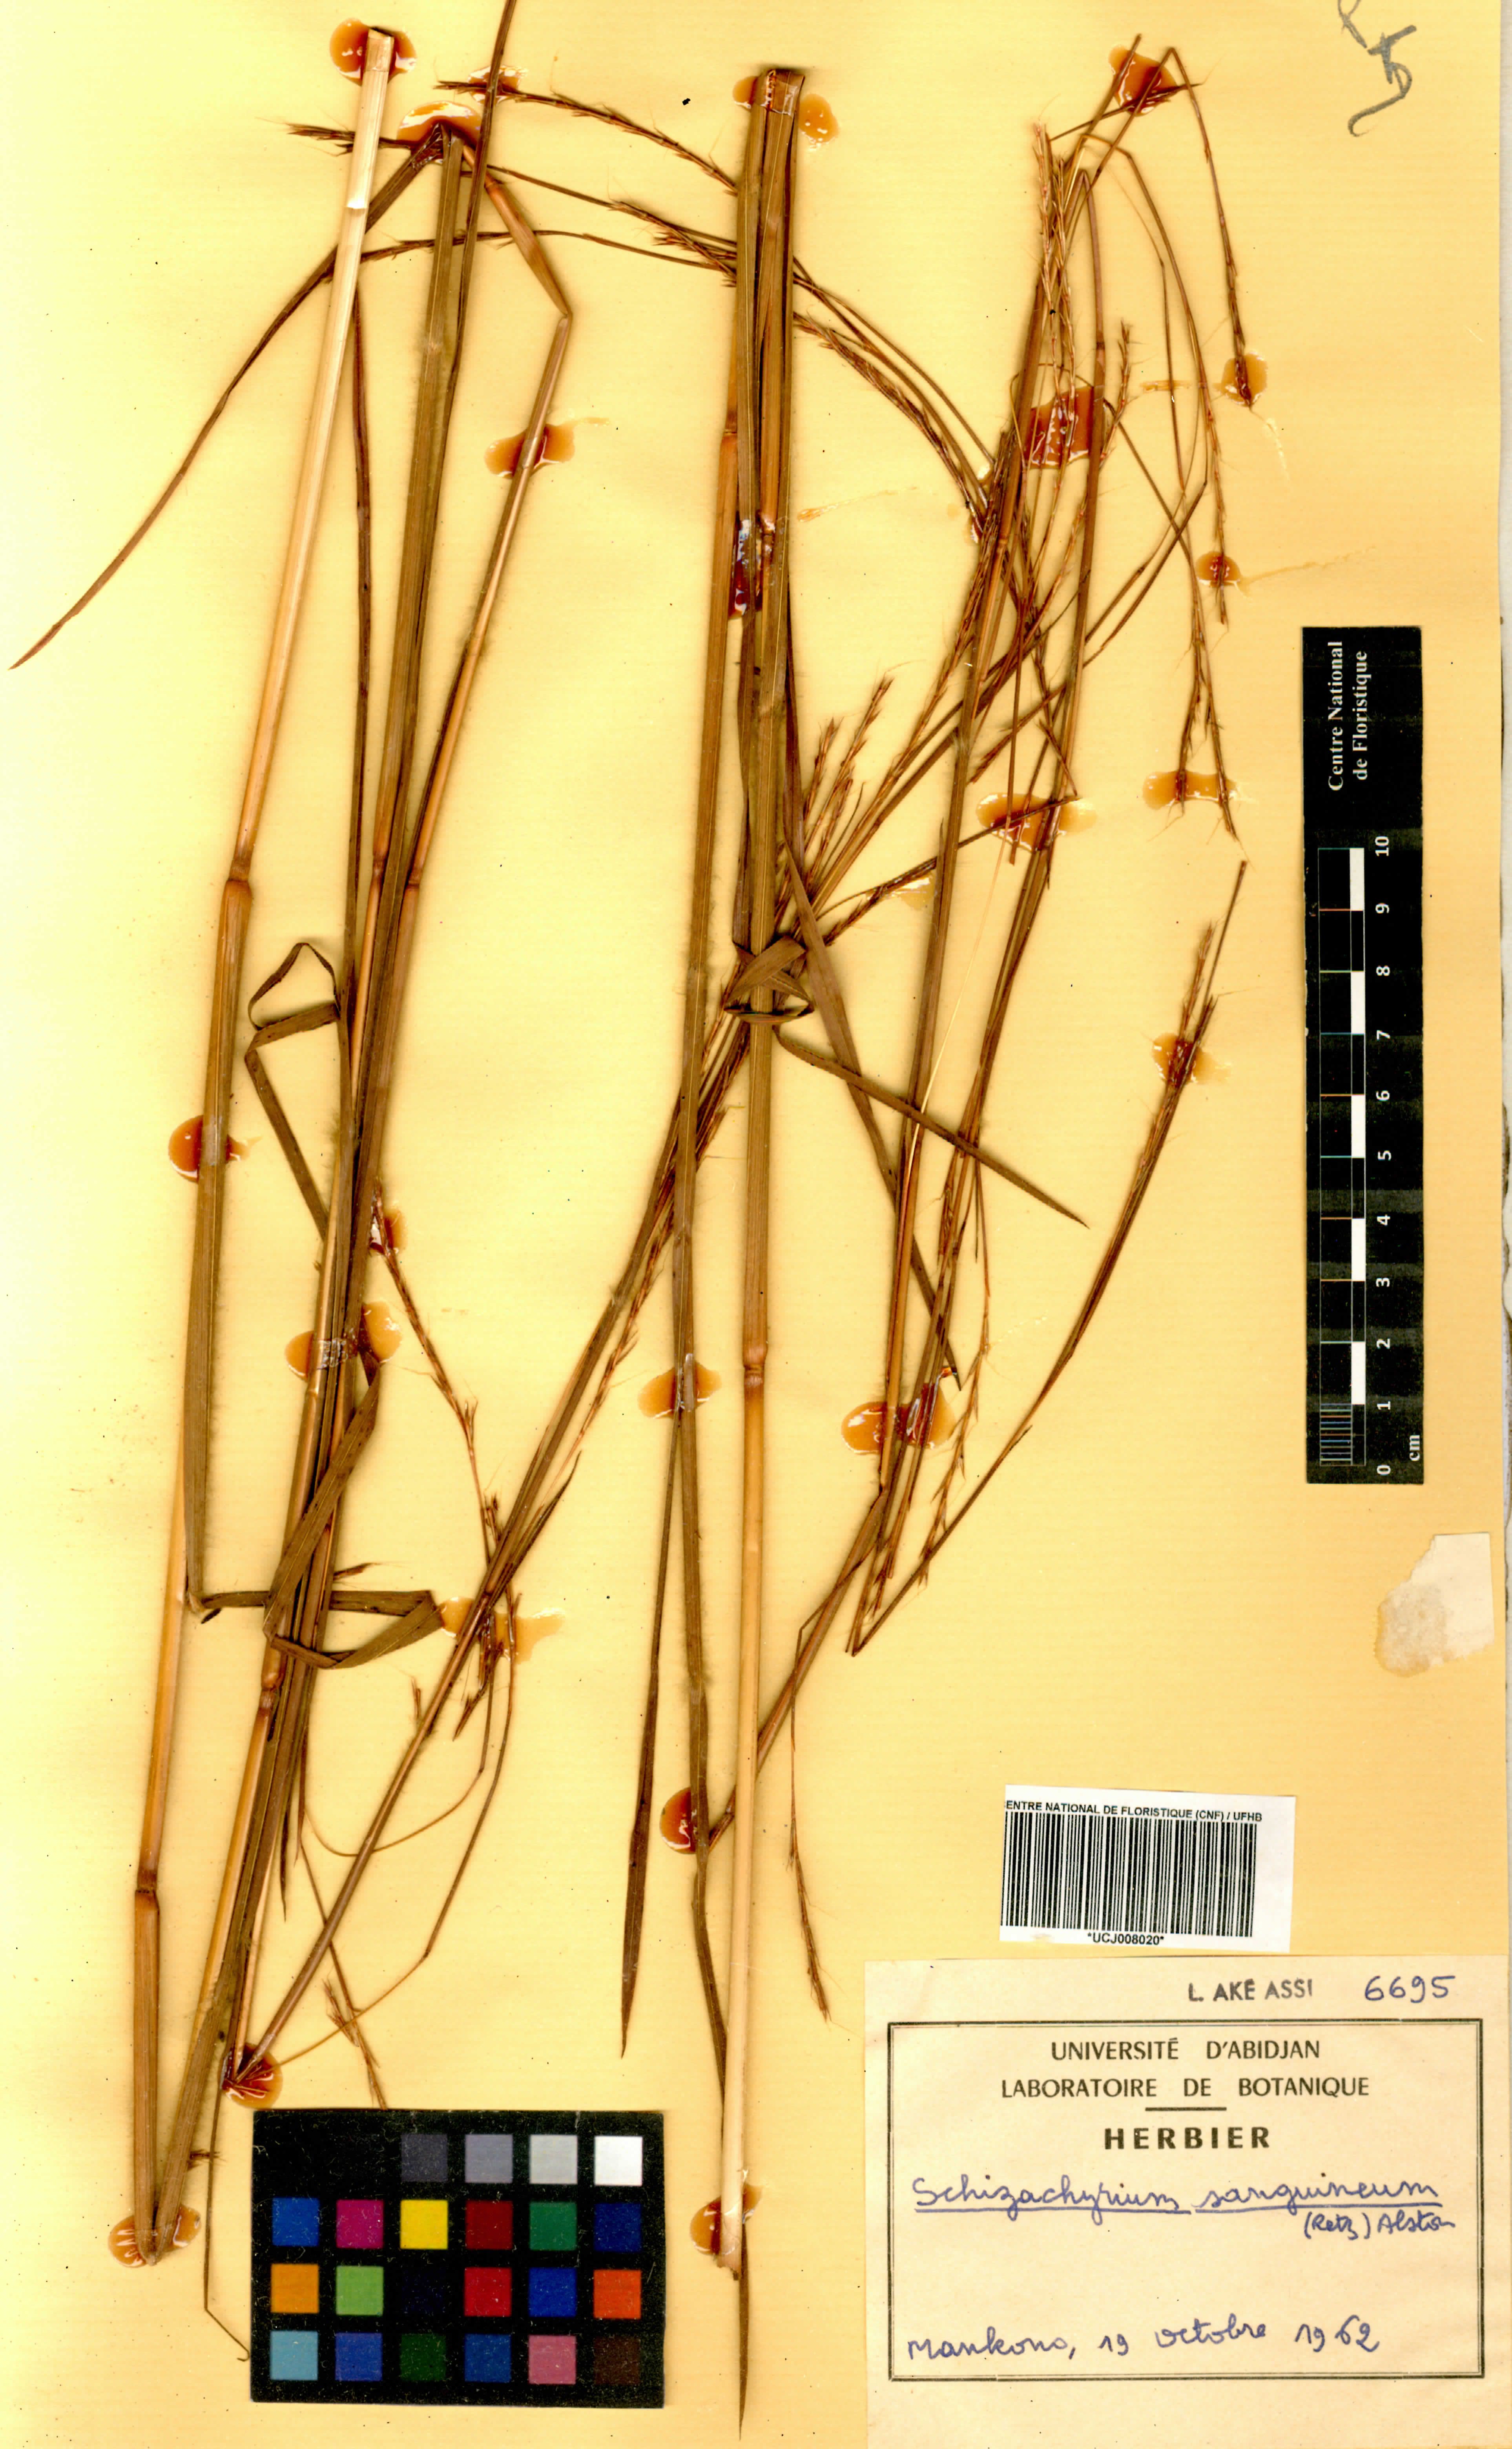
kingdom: Plantae
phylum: Tracheophyta
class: Liliopsida
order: Poales
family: Poaceae
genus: Schizachyrium
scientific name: Schizachyrium sanguineum
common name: Crimson bluestem
